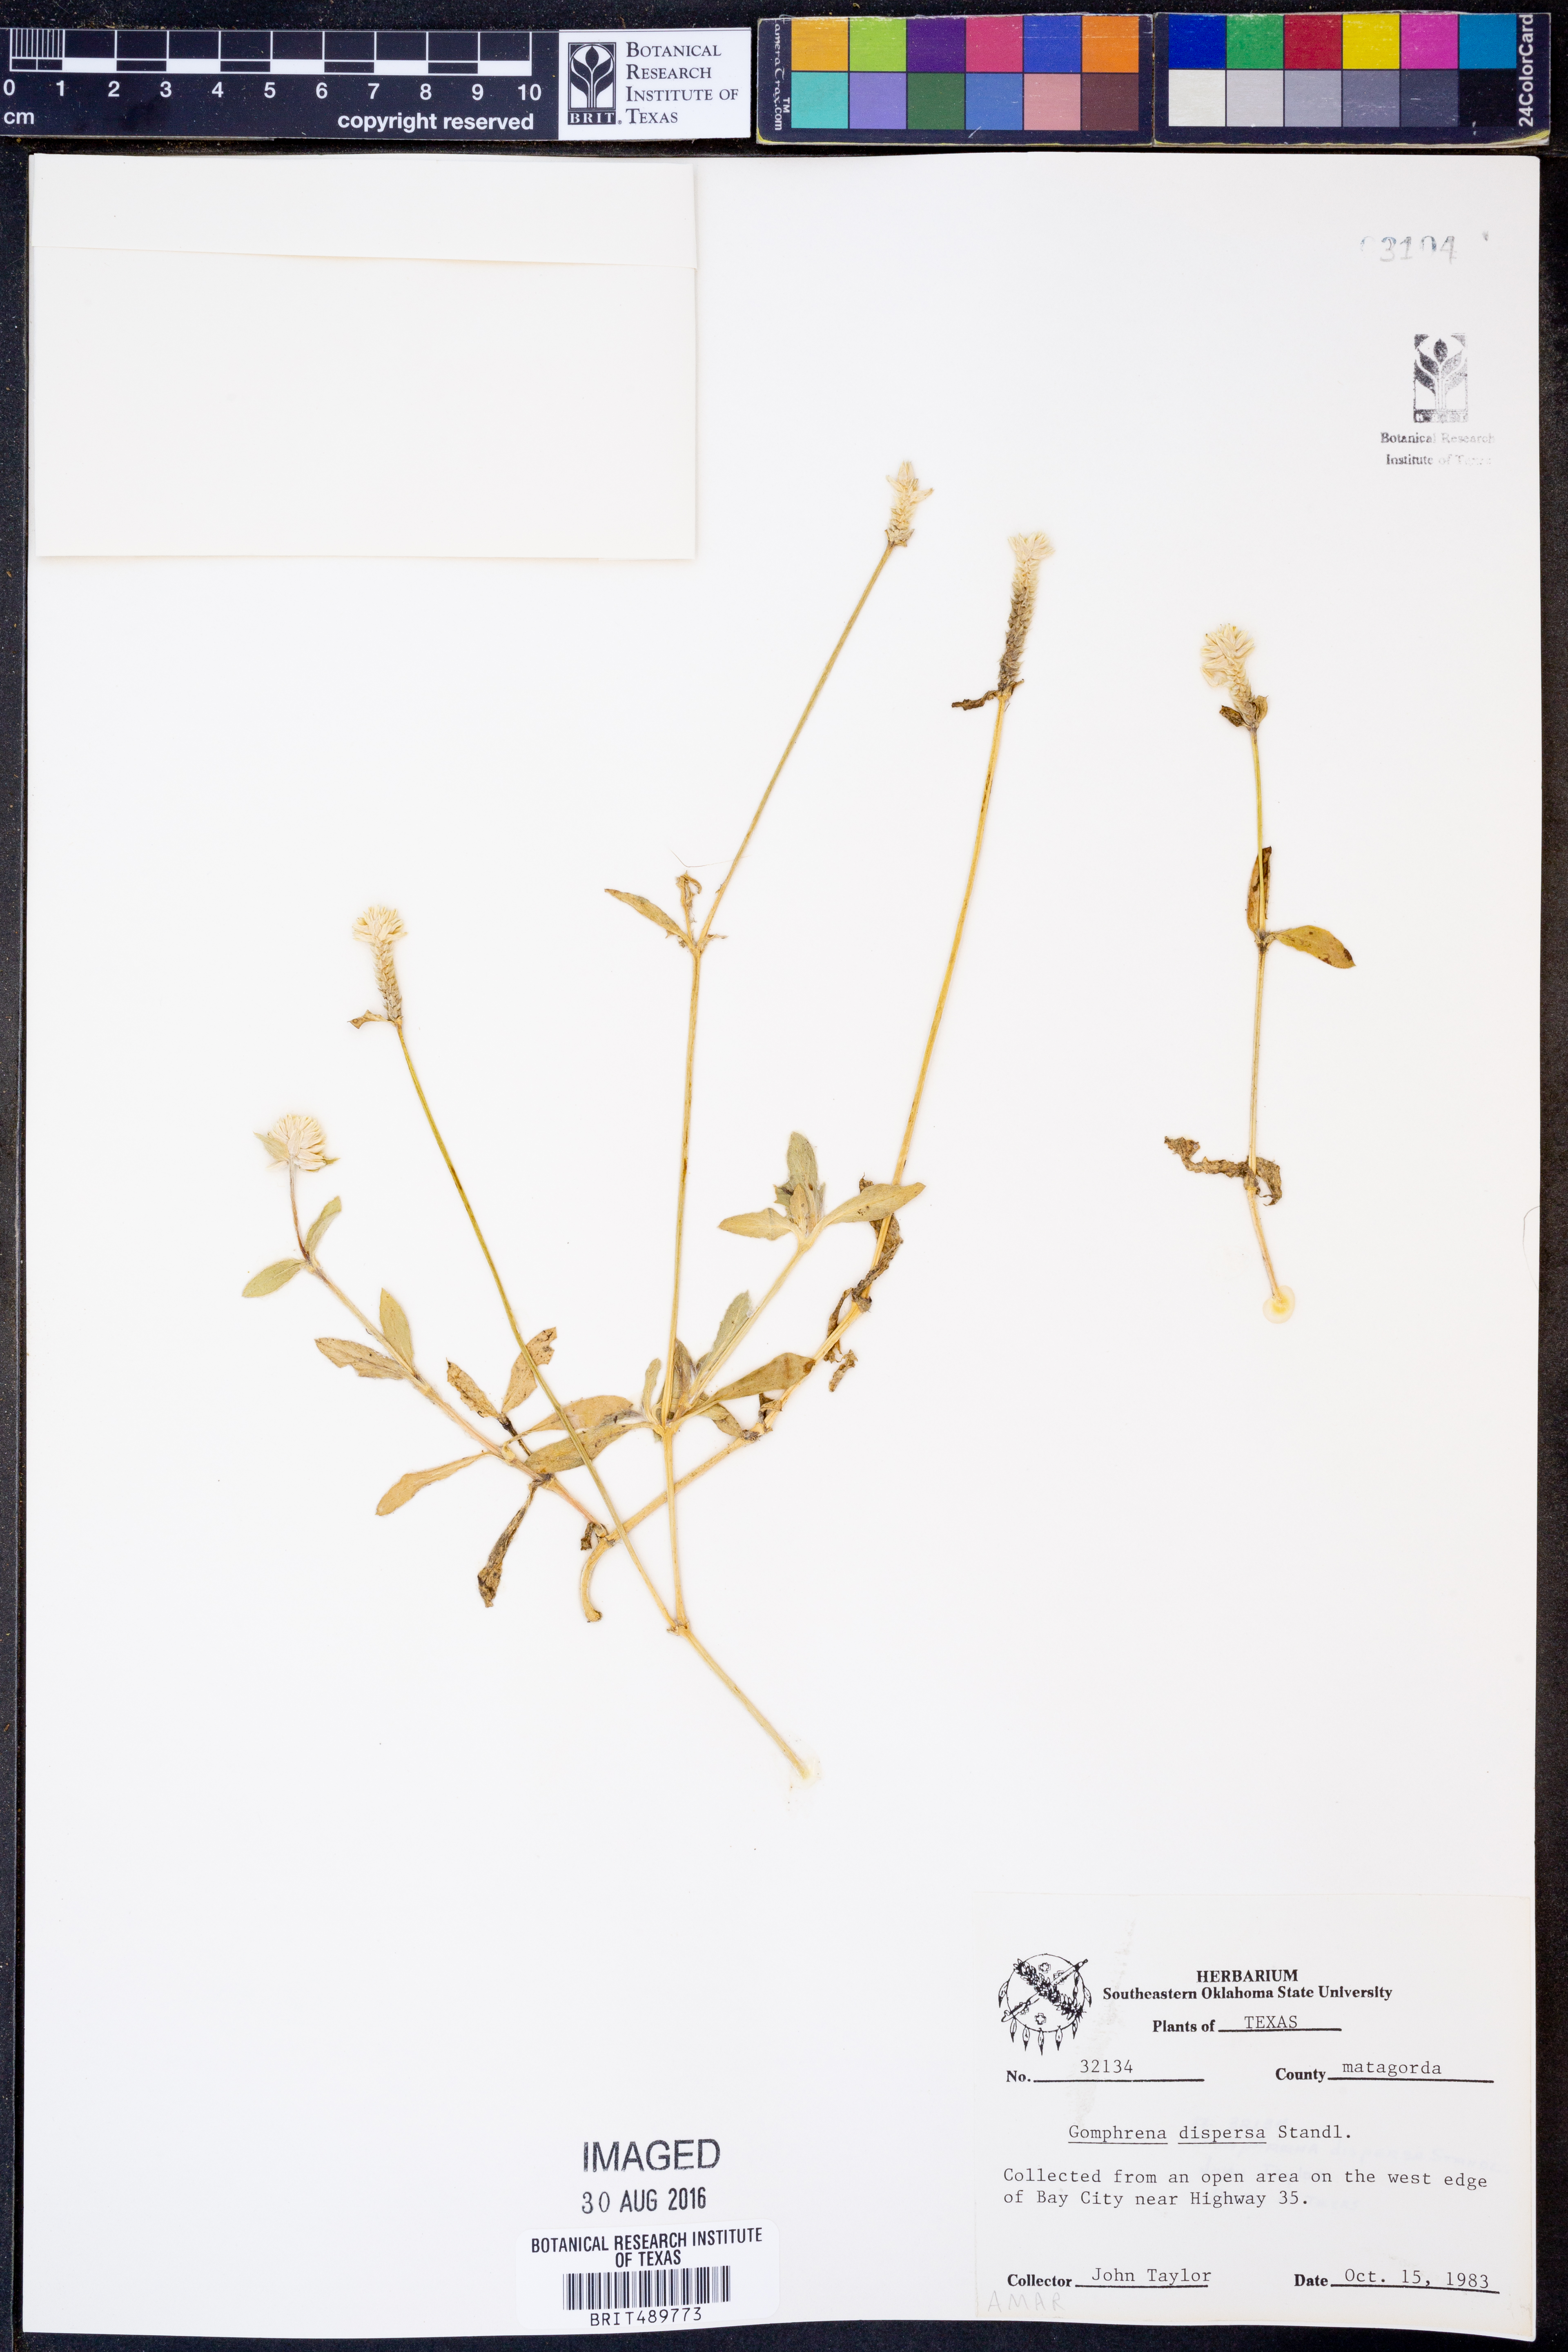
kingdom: Plantae
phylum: Tracheophyta
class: Magnoliopsida
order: Caryophyllales
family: Amaranthaceae
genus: Gomphrena
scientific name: Gomphrena serrata
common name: Arrasa con todo
